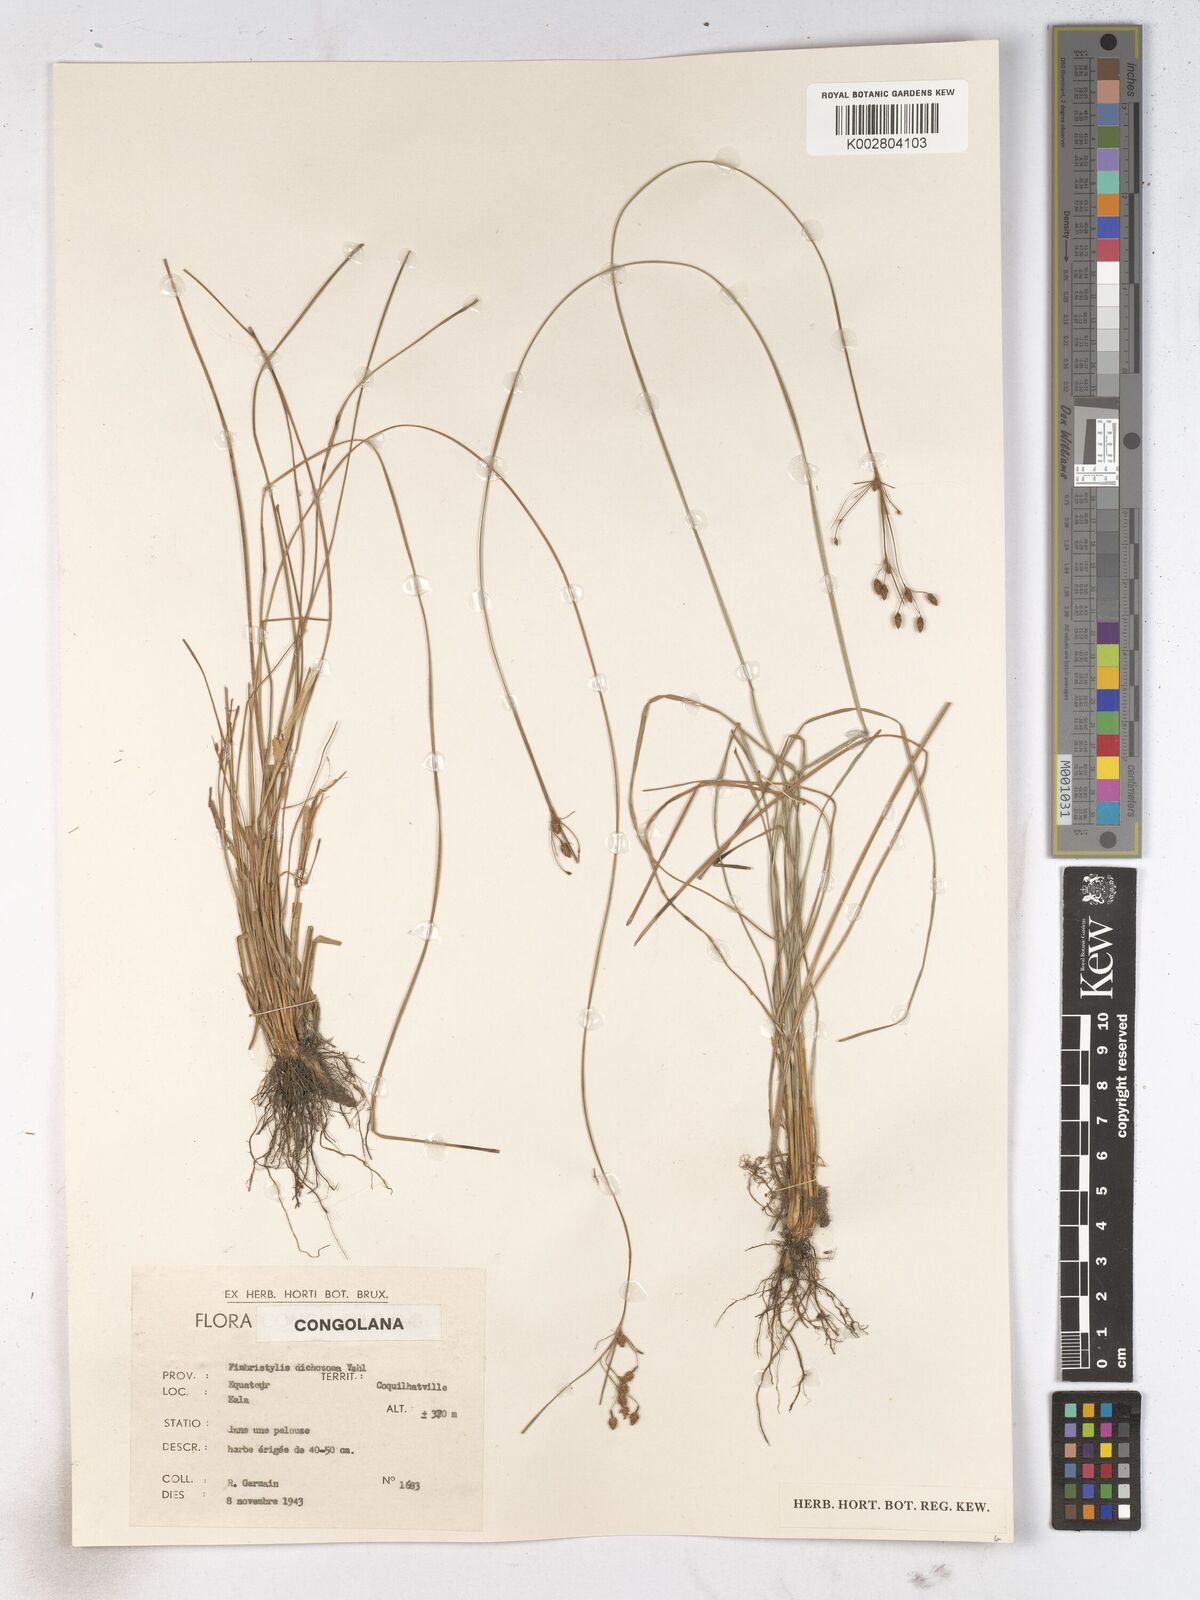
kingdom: Plantae
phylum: Tracheophyta
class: Liliopsida
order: Poales
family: Cyperaceae
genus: Fimbristylis
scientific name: Fimbristylis dichotoma
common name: Forked fimbry
